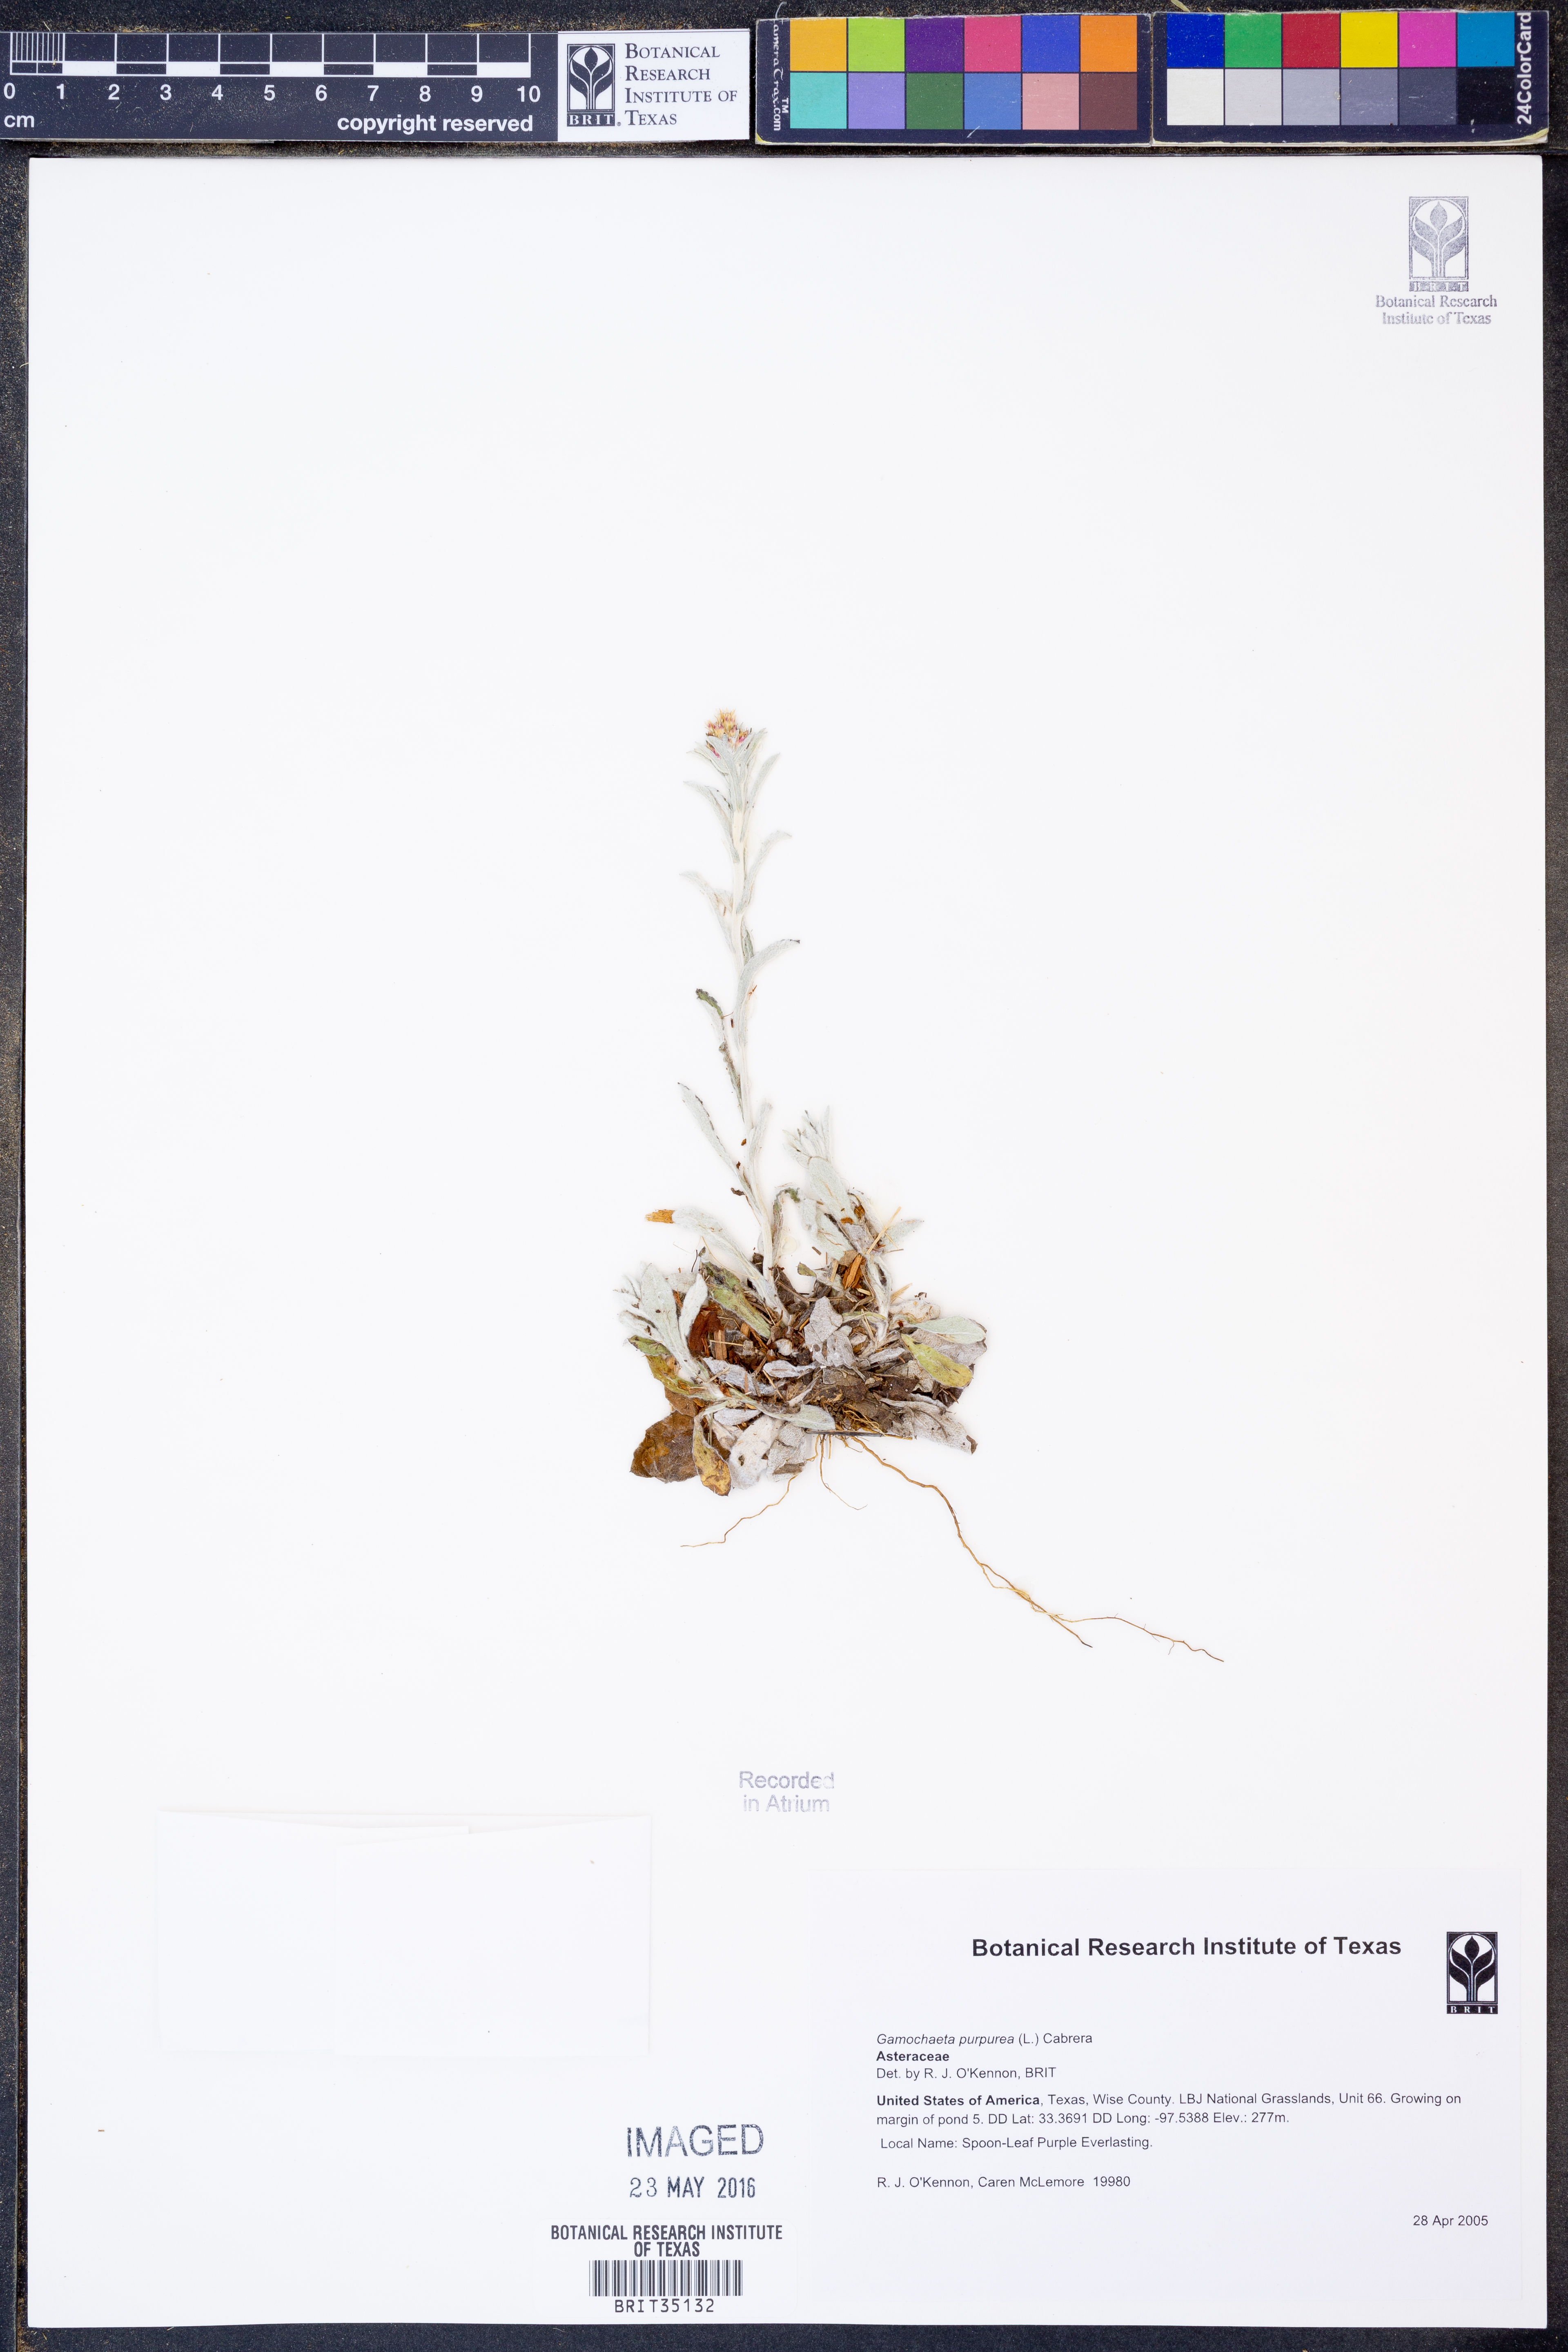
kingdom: Plantae
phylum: Tracheophyta
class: Magnoliopsida
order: Asterales
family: Asteraceae
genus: Gamochaeta
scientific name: Gamochaeta purpurea
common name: Purple cudweed
